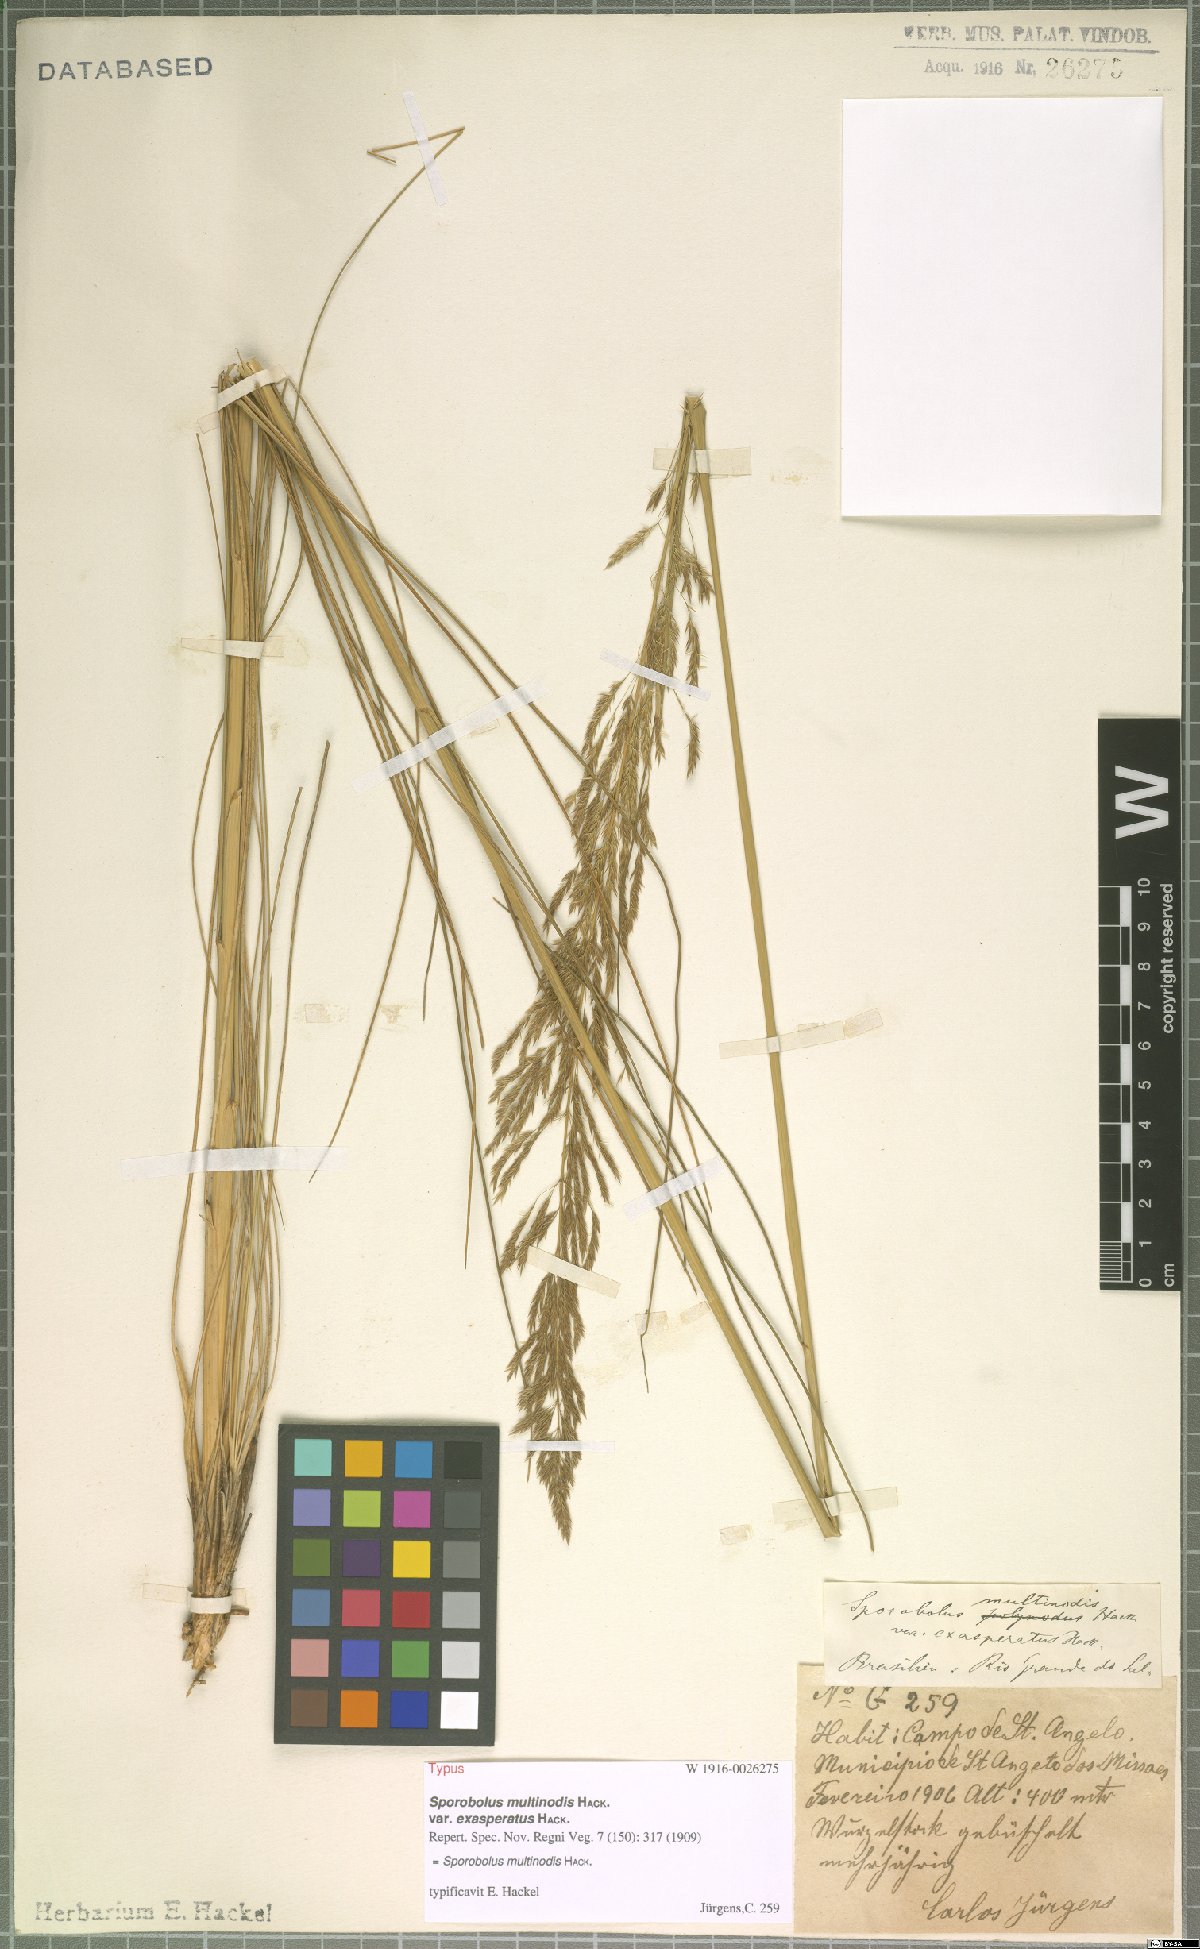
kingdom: Plantae
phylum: Tracheophyta
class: Liliopsida
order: Poales
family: Poaceae
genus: Sporobolus
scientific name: Sporobolus multinodis
